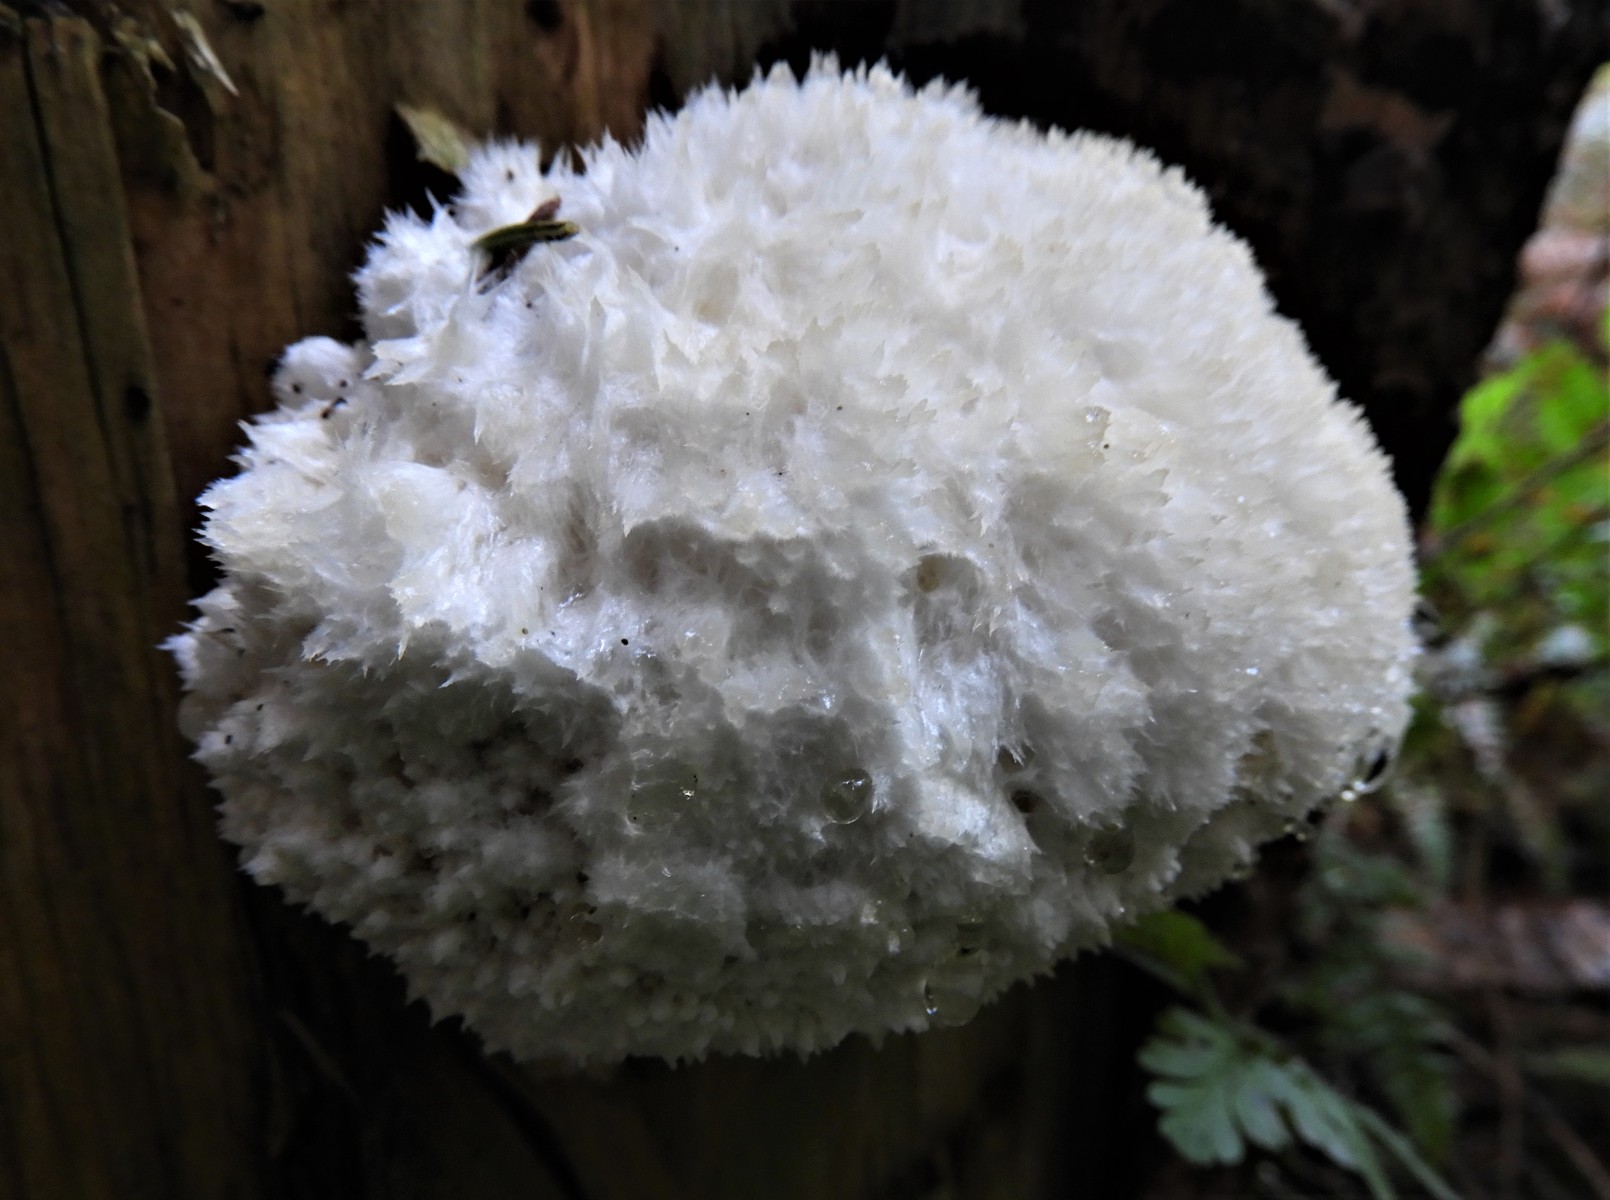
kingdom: Fungi
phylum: Basidiomycota
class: Agaricomycetes
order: Polyporales
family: Dacryobolaceae
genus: Postia
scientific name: Postia ptychogaster
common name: støvende kødporesvamp
